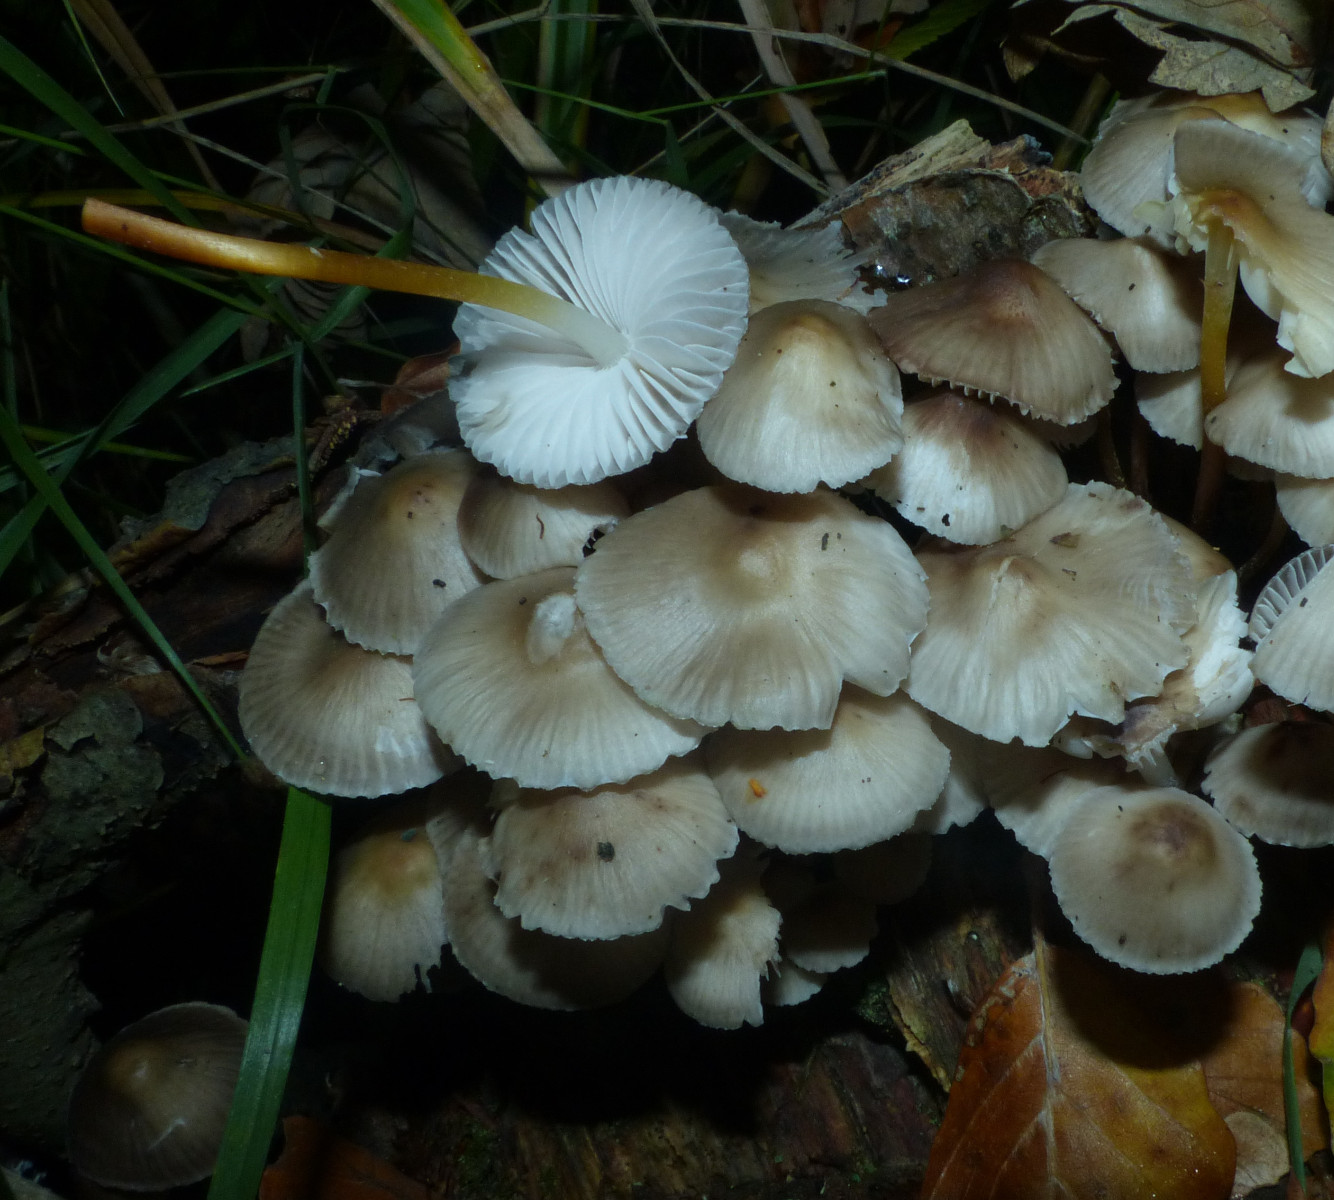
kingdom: Fungi
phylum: Basidiomycota
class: Agaricomycetes
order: Agaricales
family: Mycenaceae
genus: Mycena
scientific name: Mycena inclinata
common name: nikkende huesvamp
